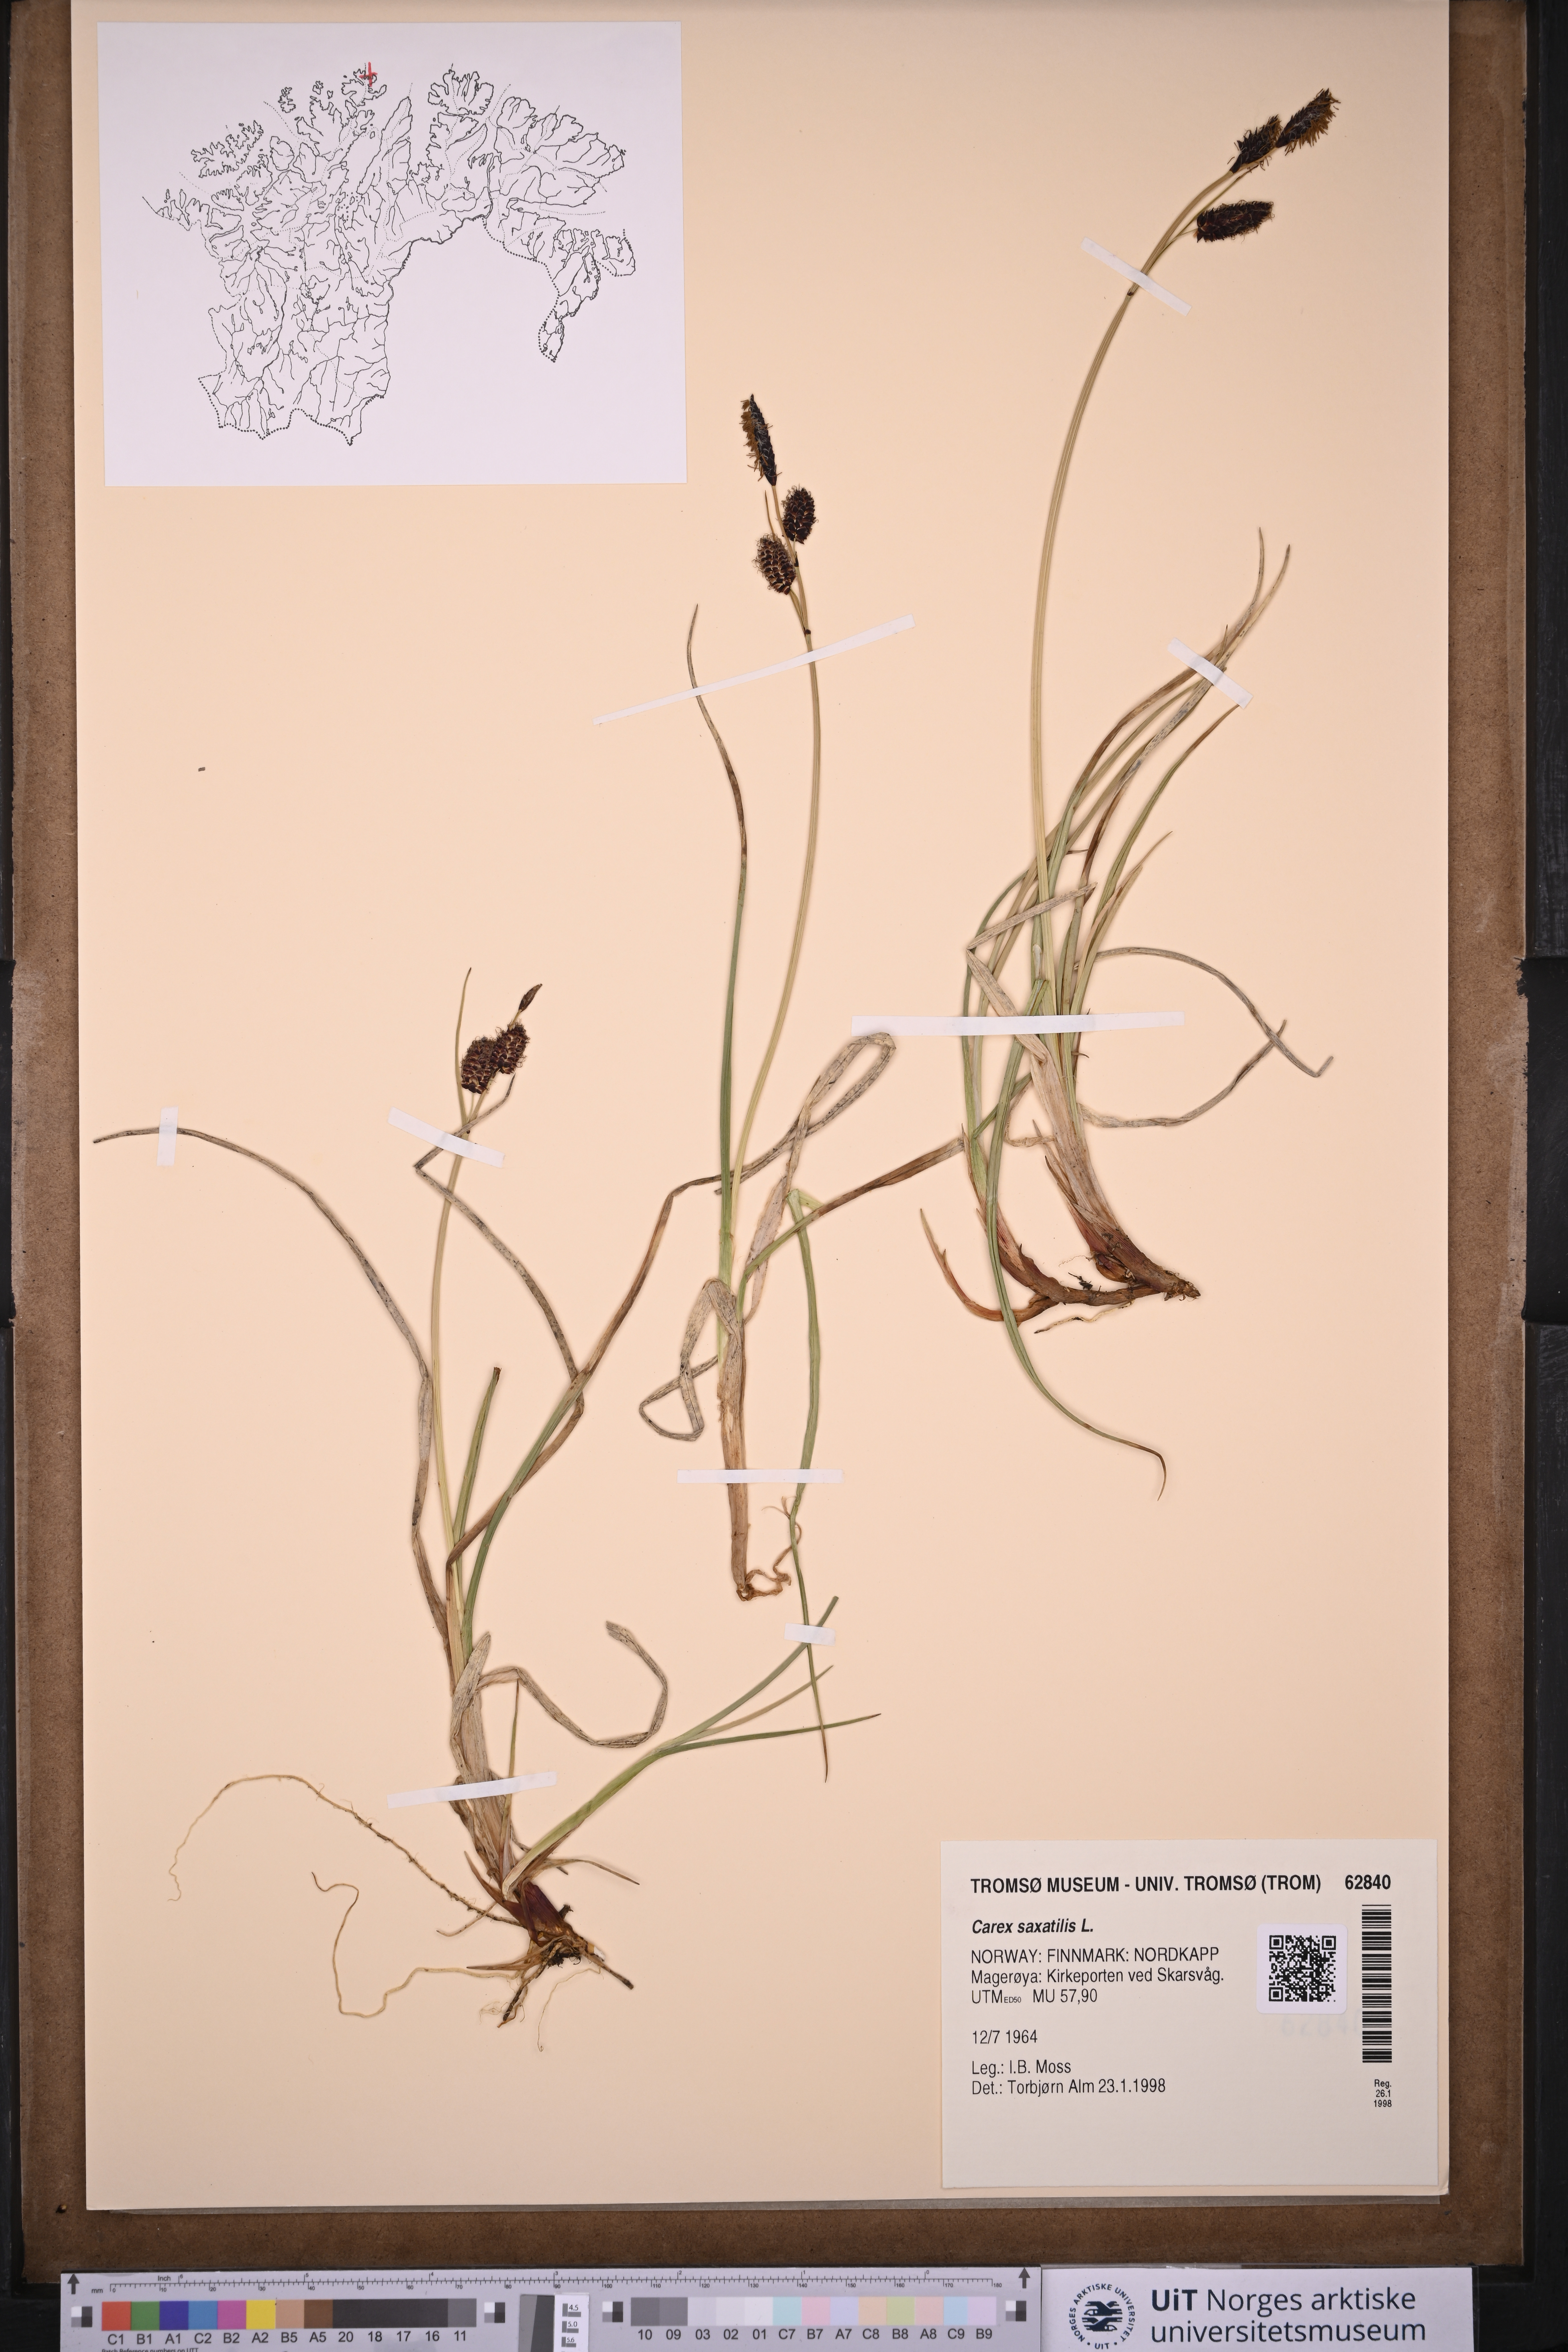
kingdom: Plantae
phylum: Tracheophyta
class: Liliopsida
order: Poales
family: Cyperaceae
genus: Carex
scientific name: Carex saxatilis
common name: Russet sedge
